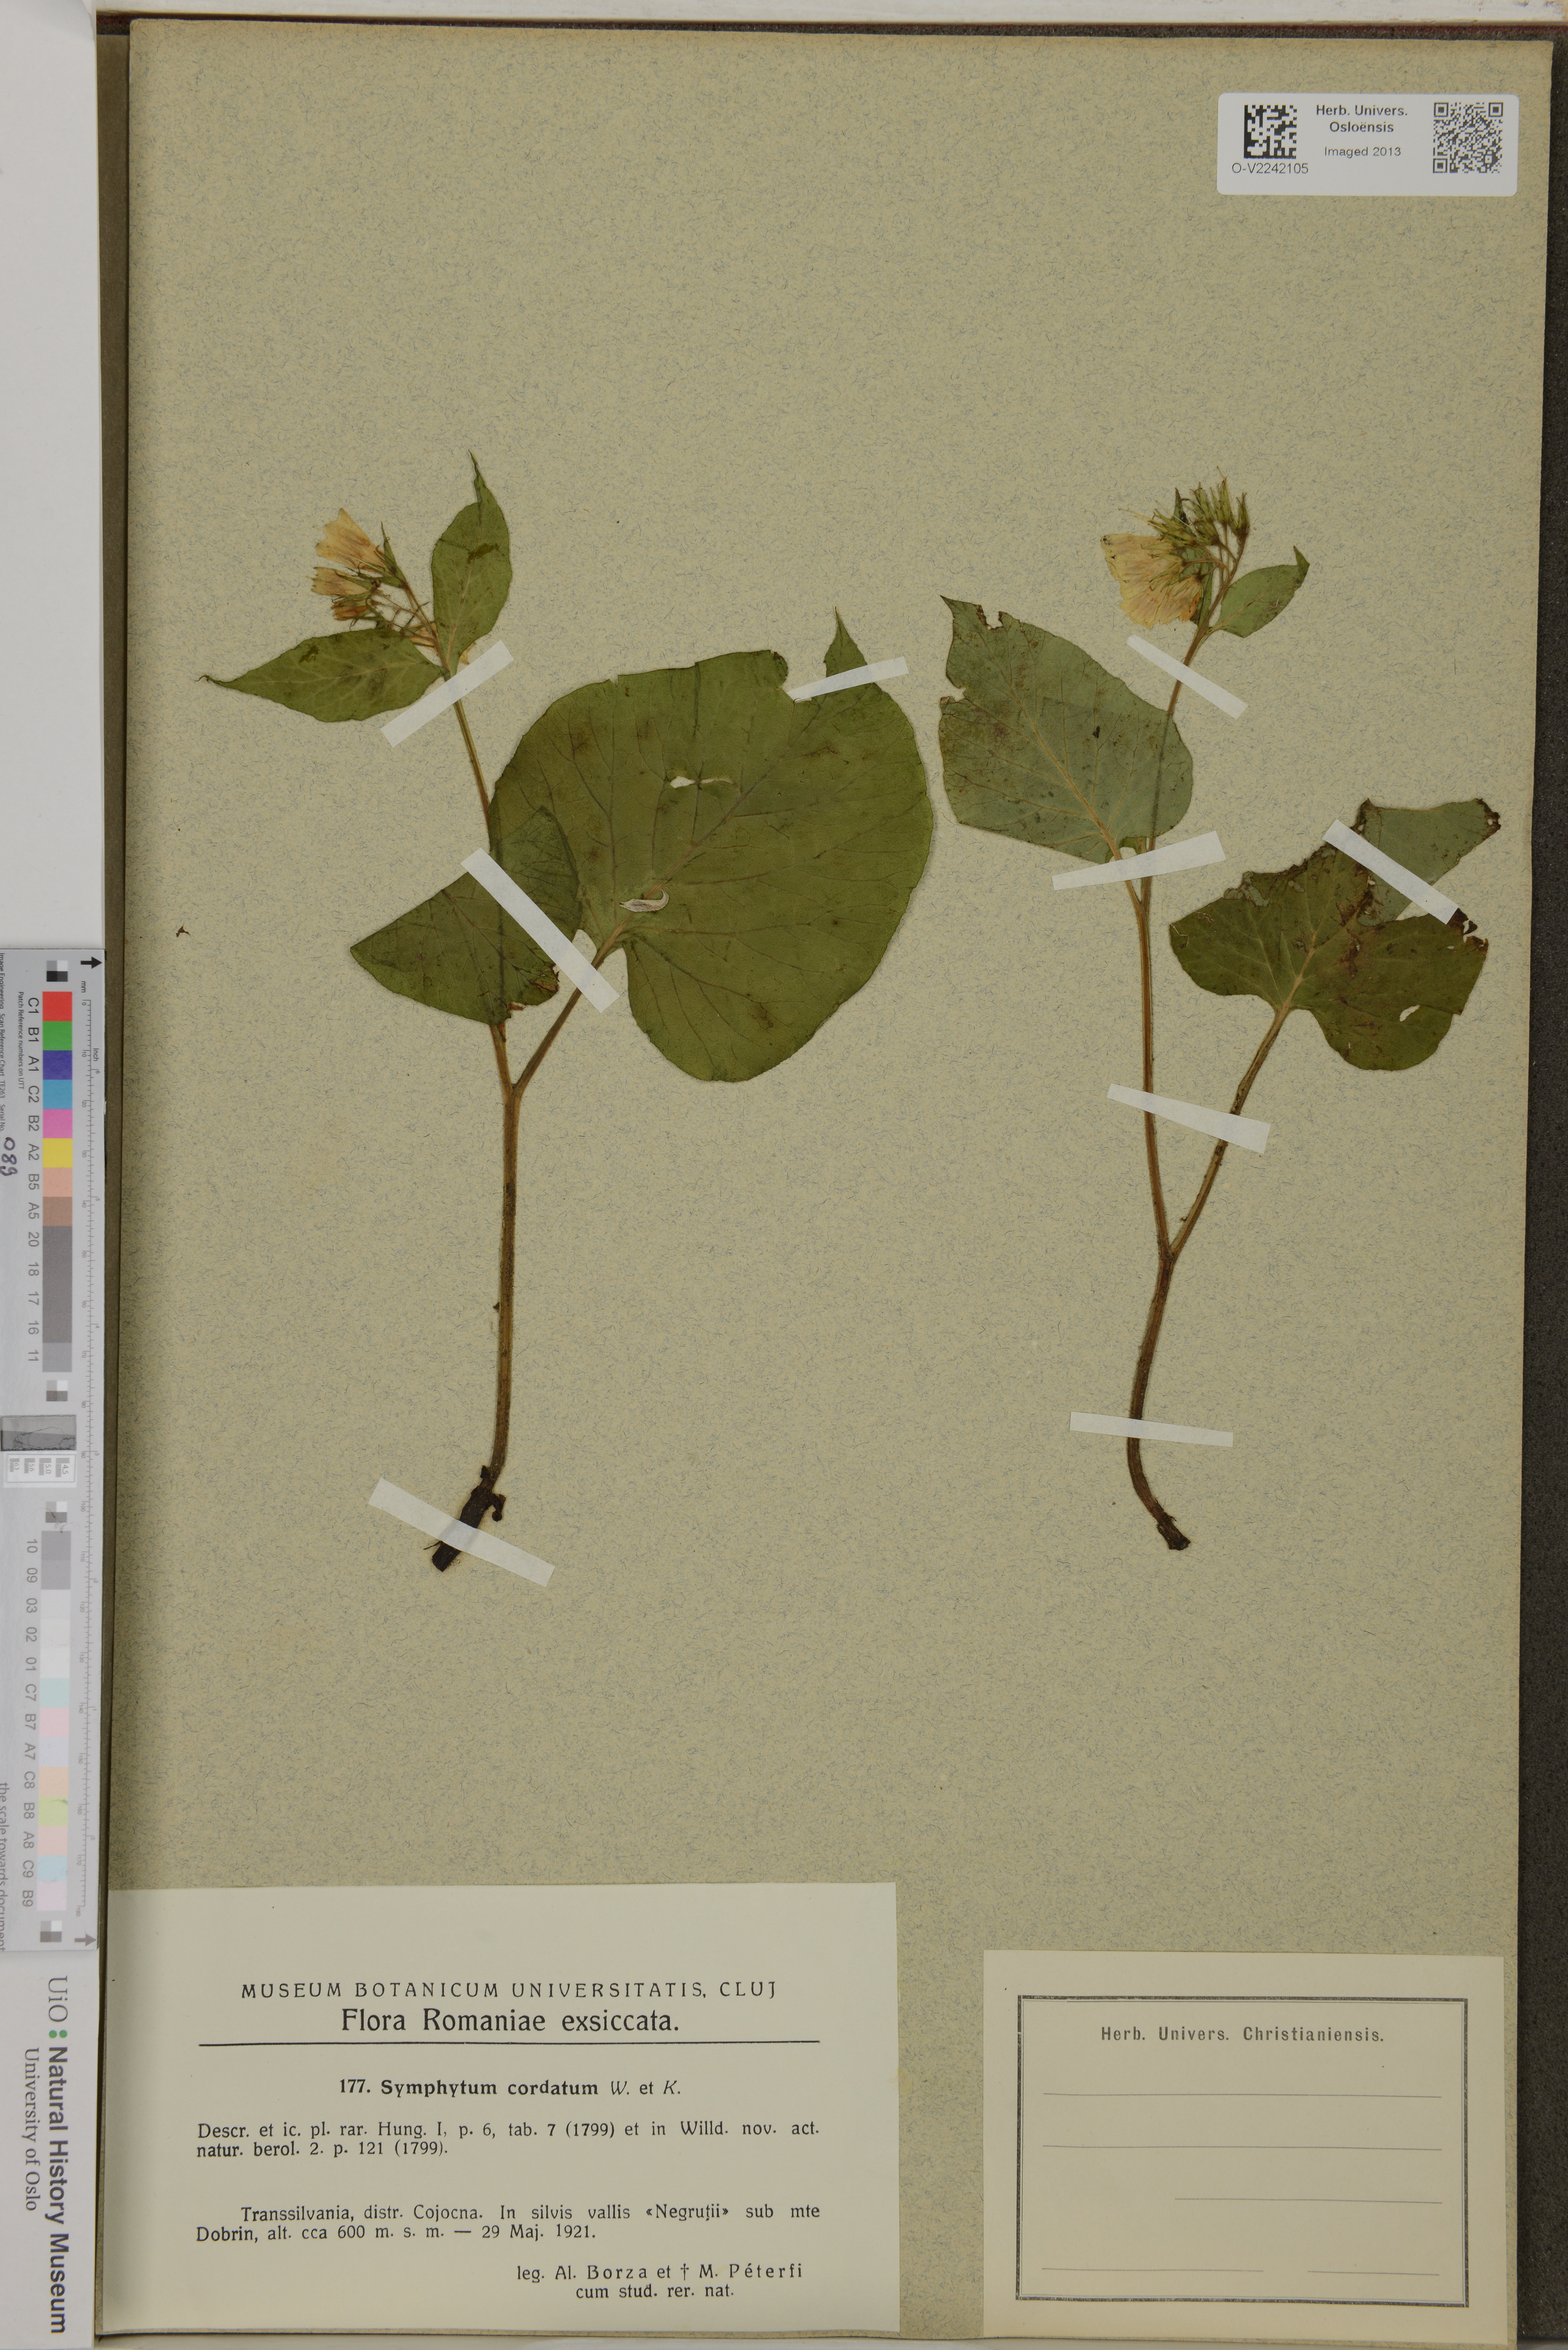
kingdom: Plantae
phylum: Tracheophyta
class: Magnoliopsida
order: Boraginales
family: Boraginaceae
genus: Symphytum
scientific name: Symphytum cordatum
